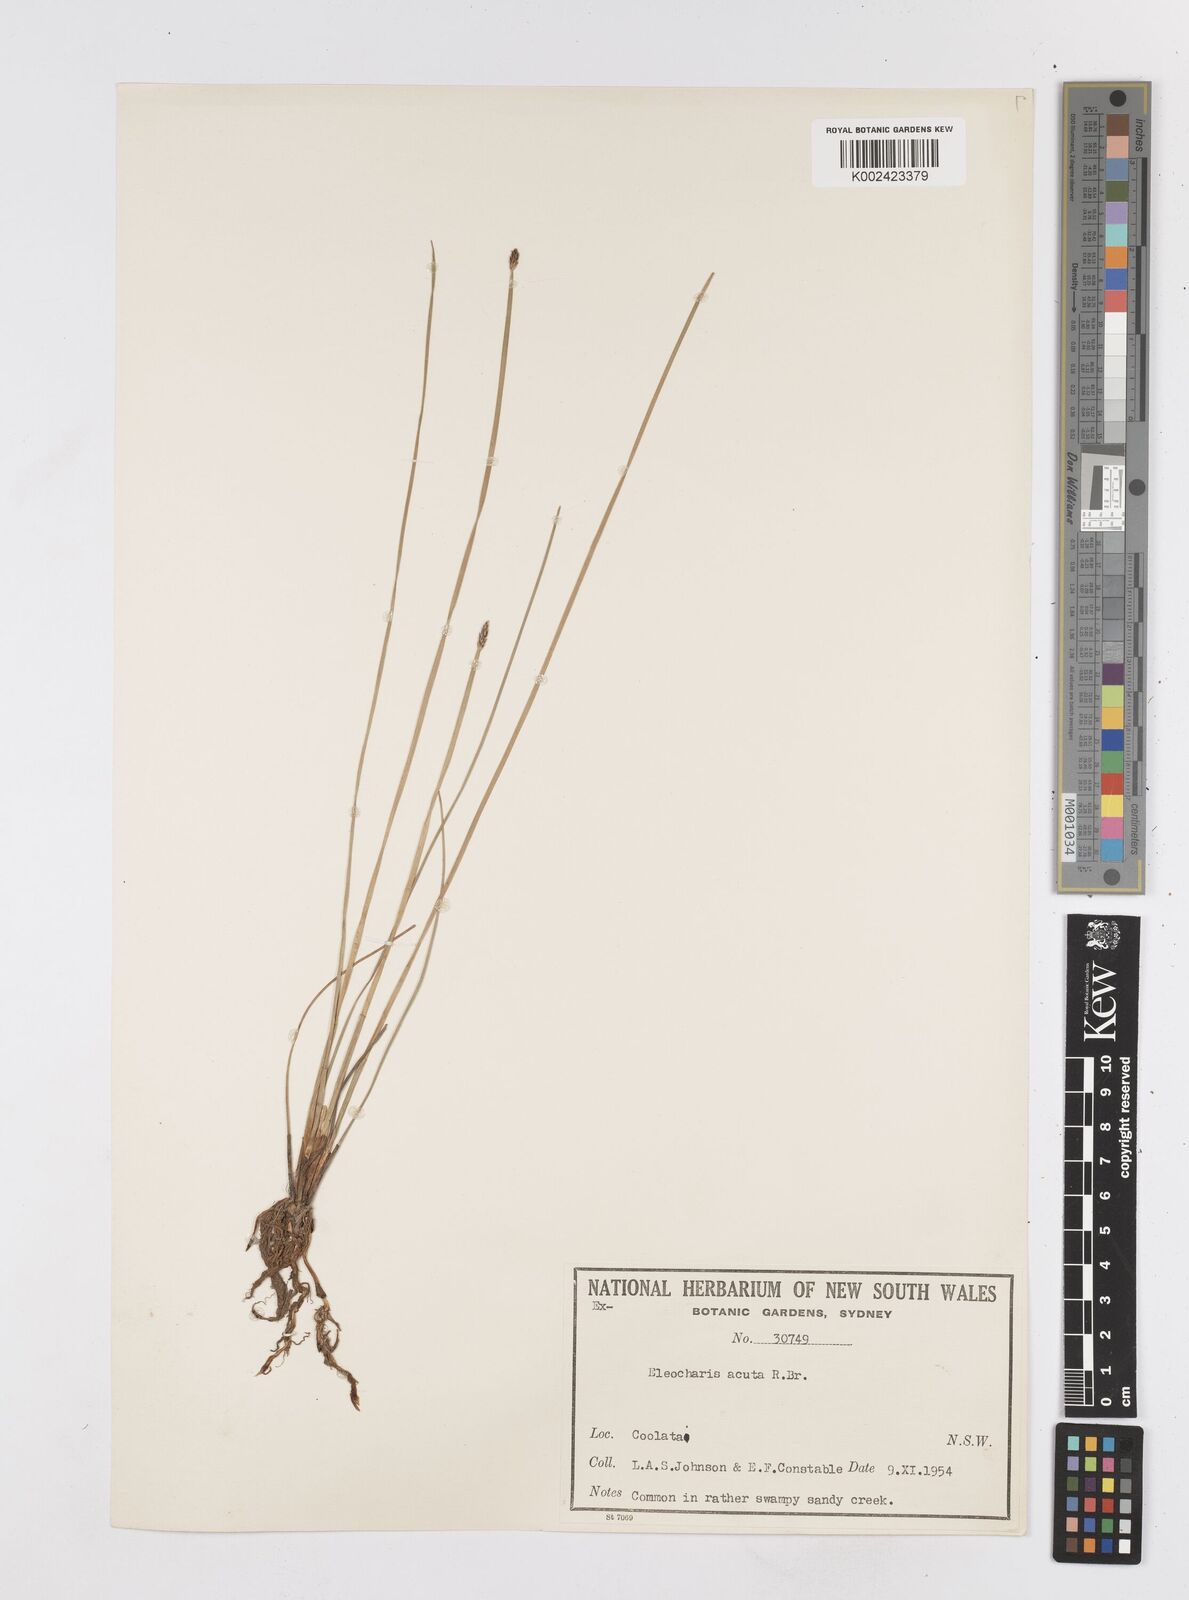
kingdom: Plantae
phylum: Tracheophyta
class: Liliopsida
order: Poales
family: Cyperaceae
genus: Eleocharis
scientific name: Eleocharis acuta
